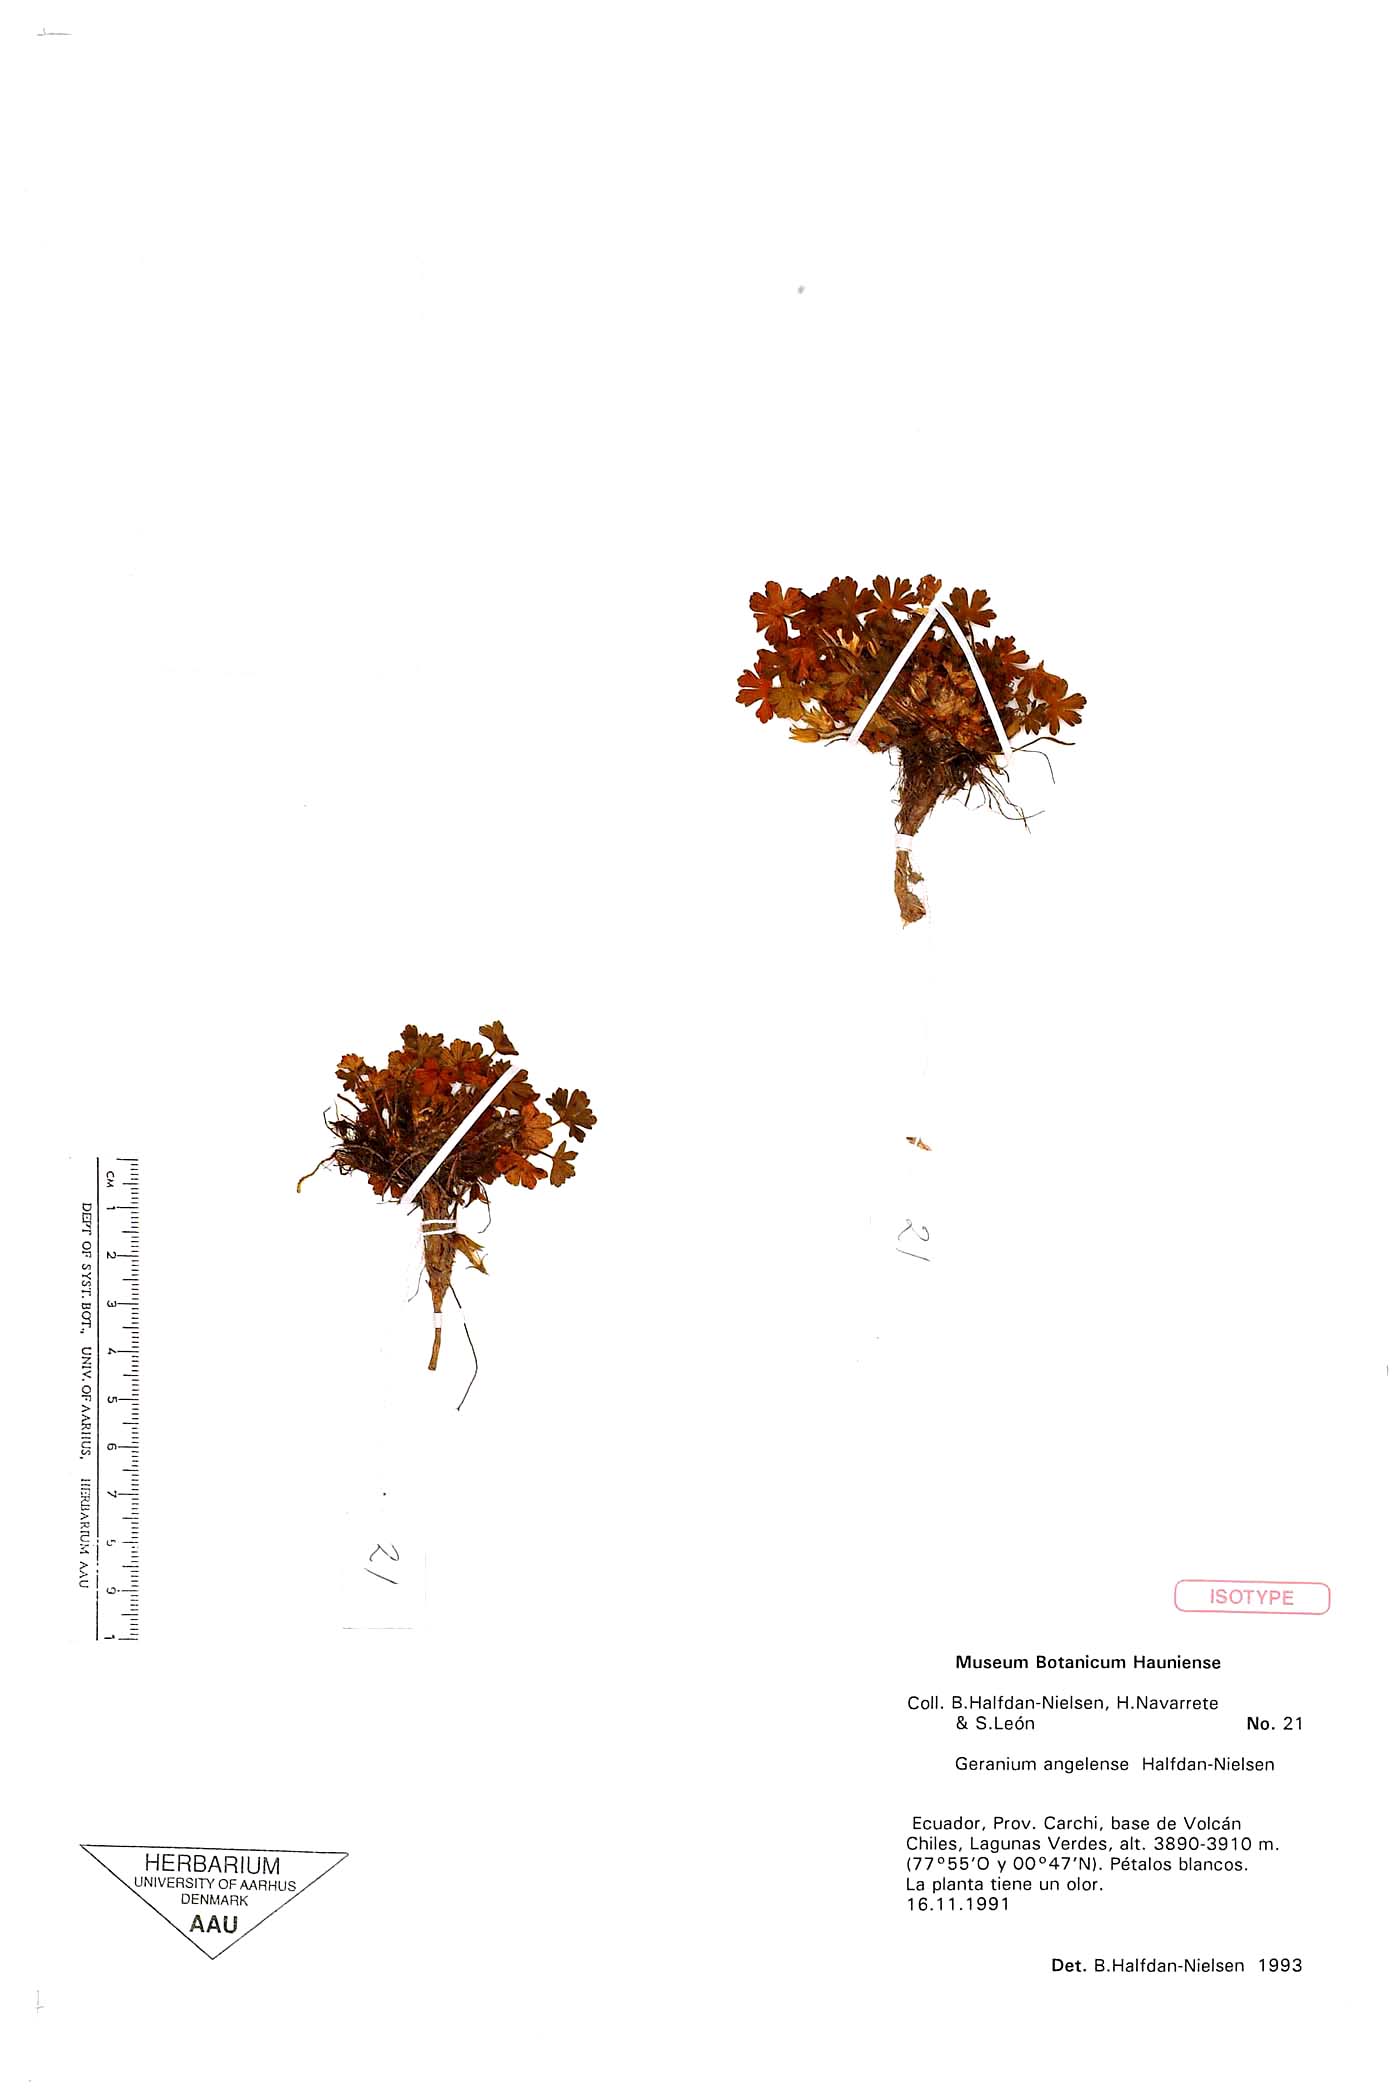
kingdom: Plantae
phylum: Tracheophyta
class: Magnoliopsida
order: Geraniales
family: Geraniaceae
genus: Geranium
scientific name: Geranium stramineum
